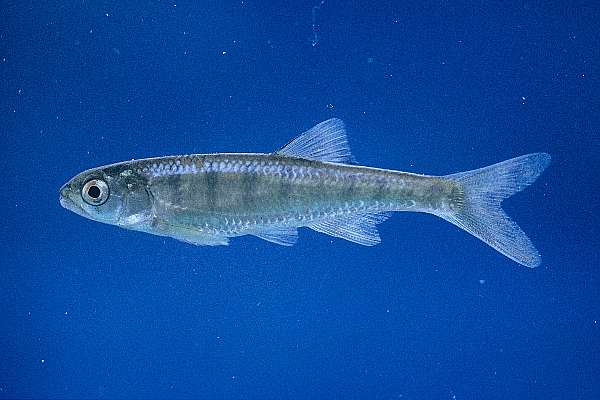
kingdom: Animalia
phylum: Chordata
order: Cypriniformes
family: Cyprinidae
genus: Opsaridium
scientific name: Opsaridium peringueyi
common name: Southern barred minnow
